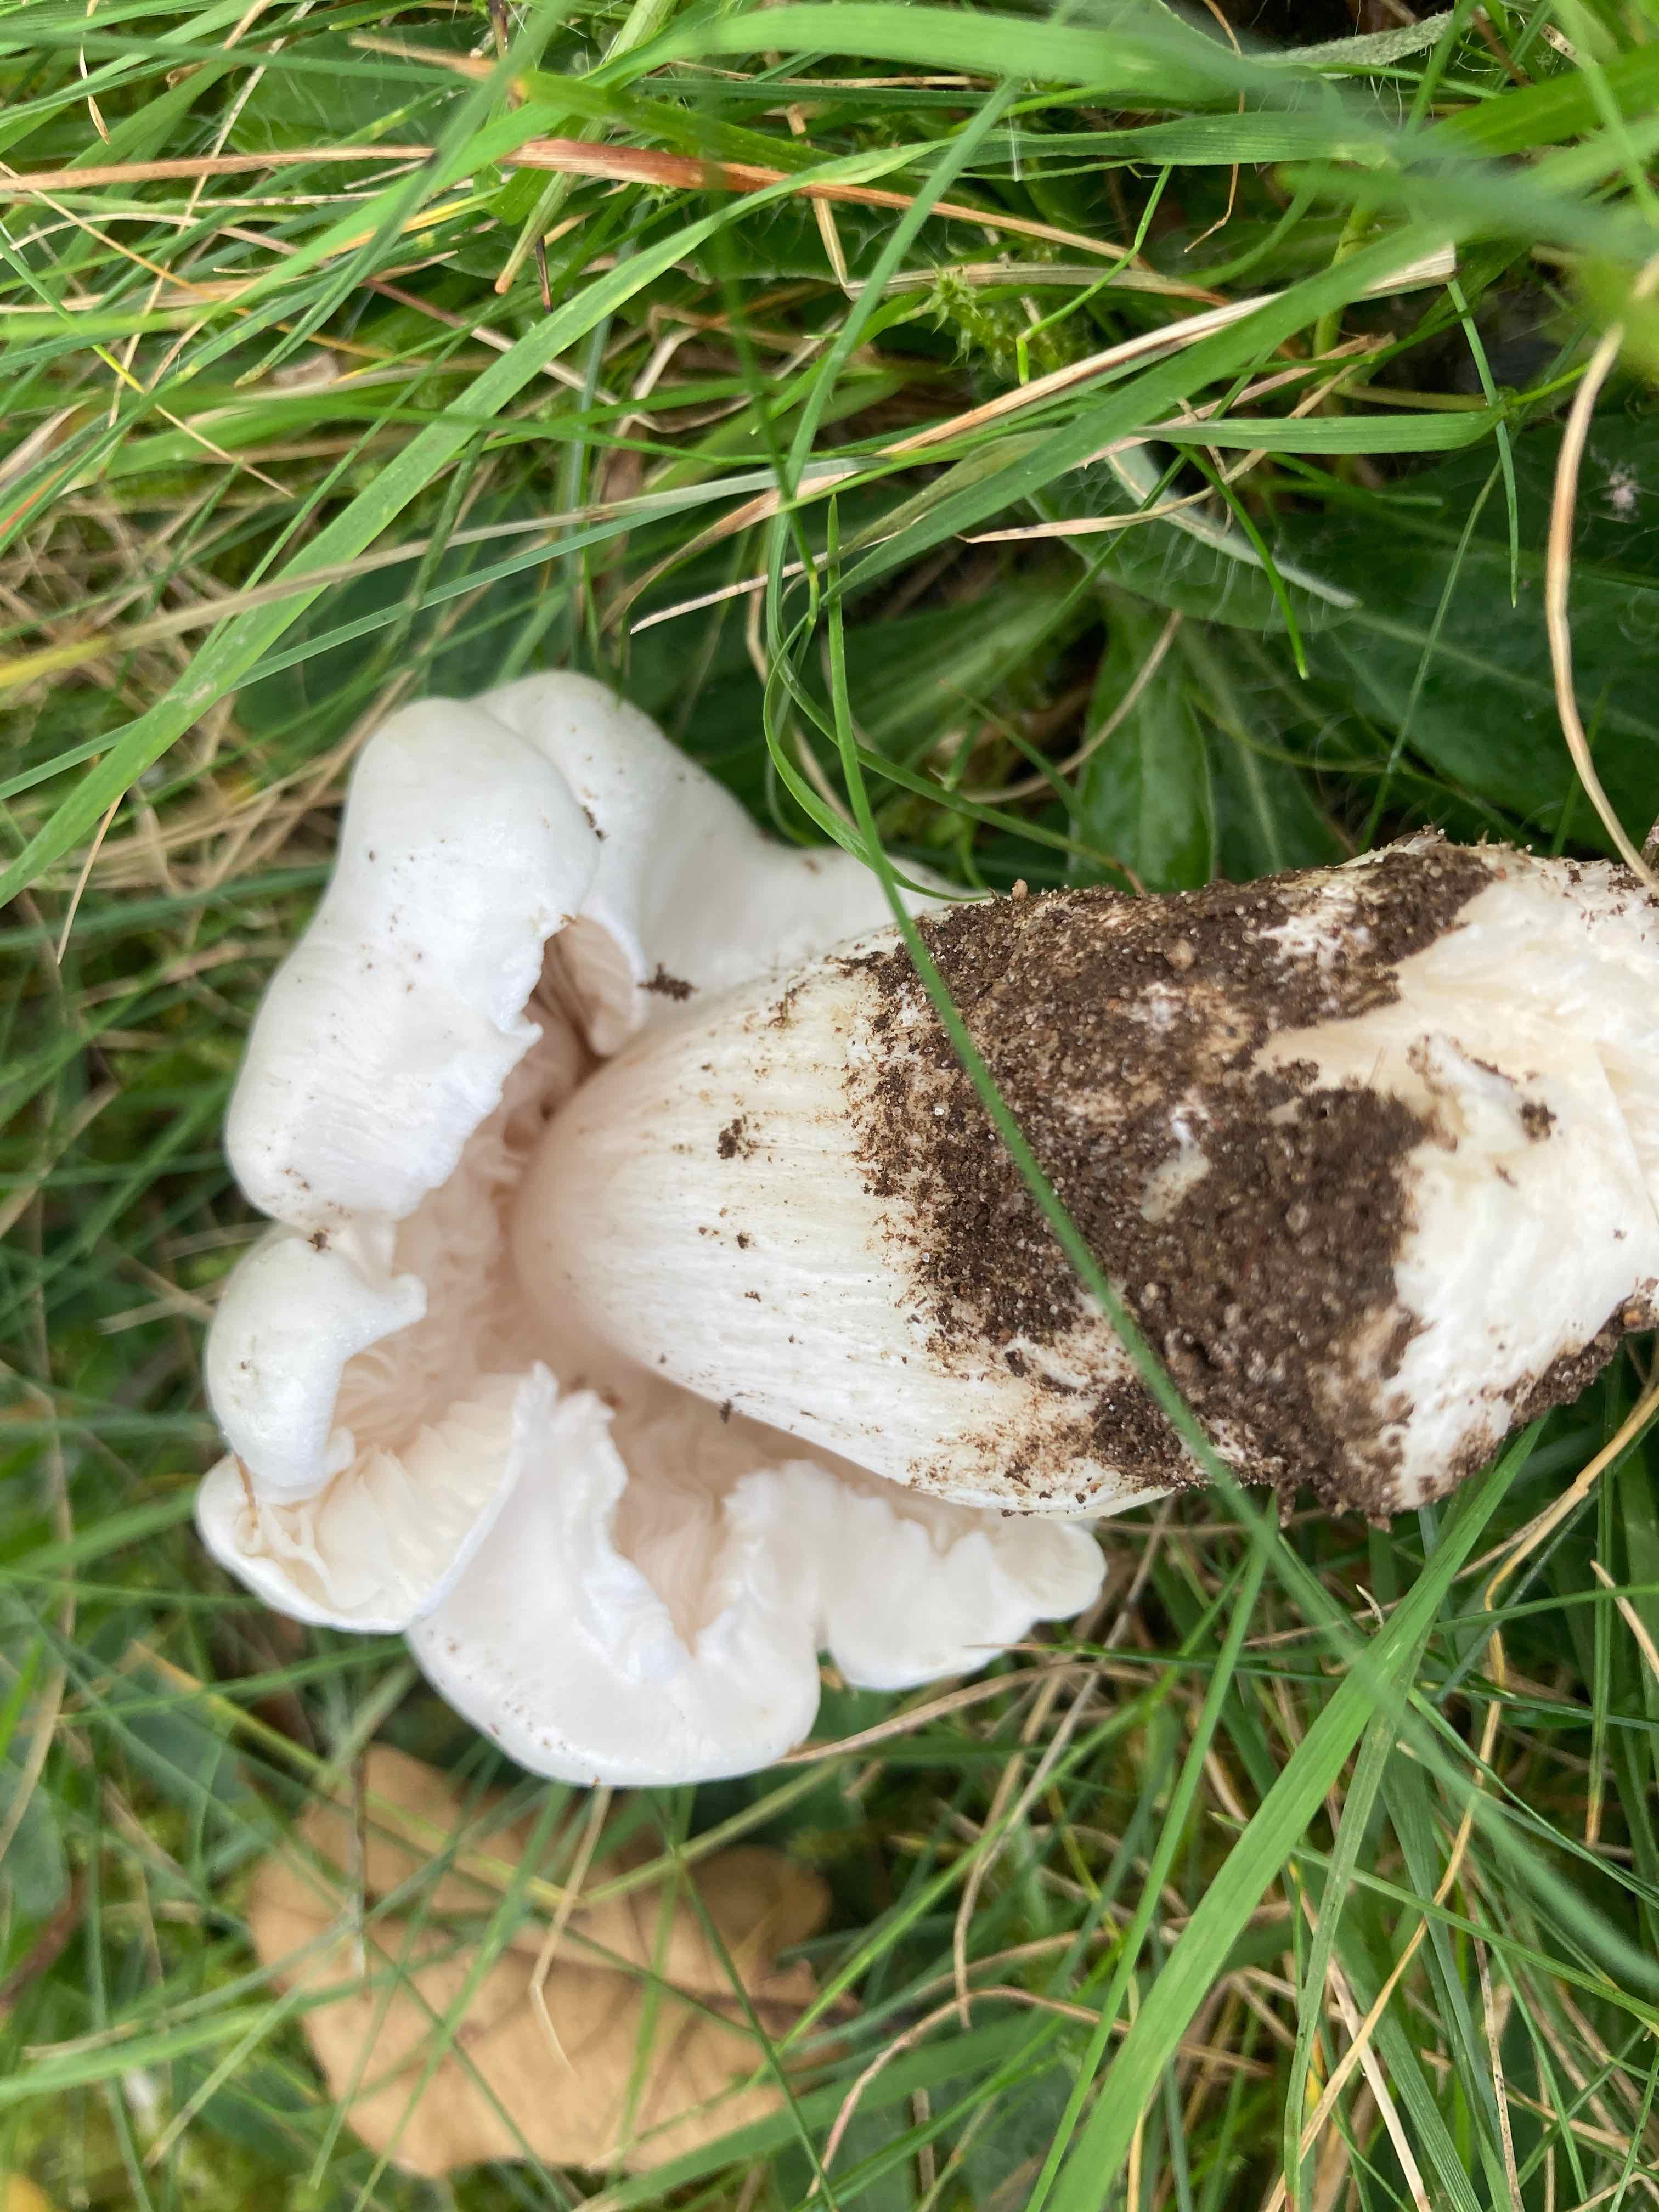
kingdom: Fungi
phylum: Basidiomycota
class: Agaricomycetes
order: Agaricales
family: Tricholomataceae
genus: Tricholoma
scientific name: Tricholoma columbetta
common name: silke-ridderhat
